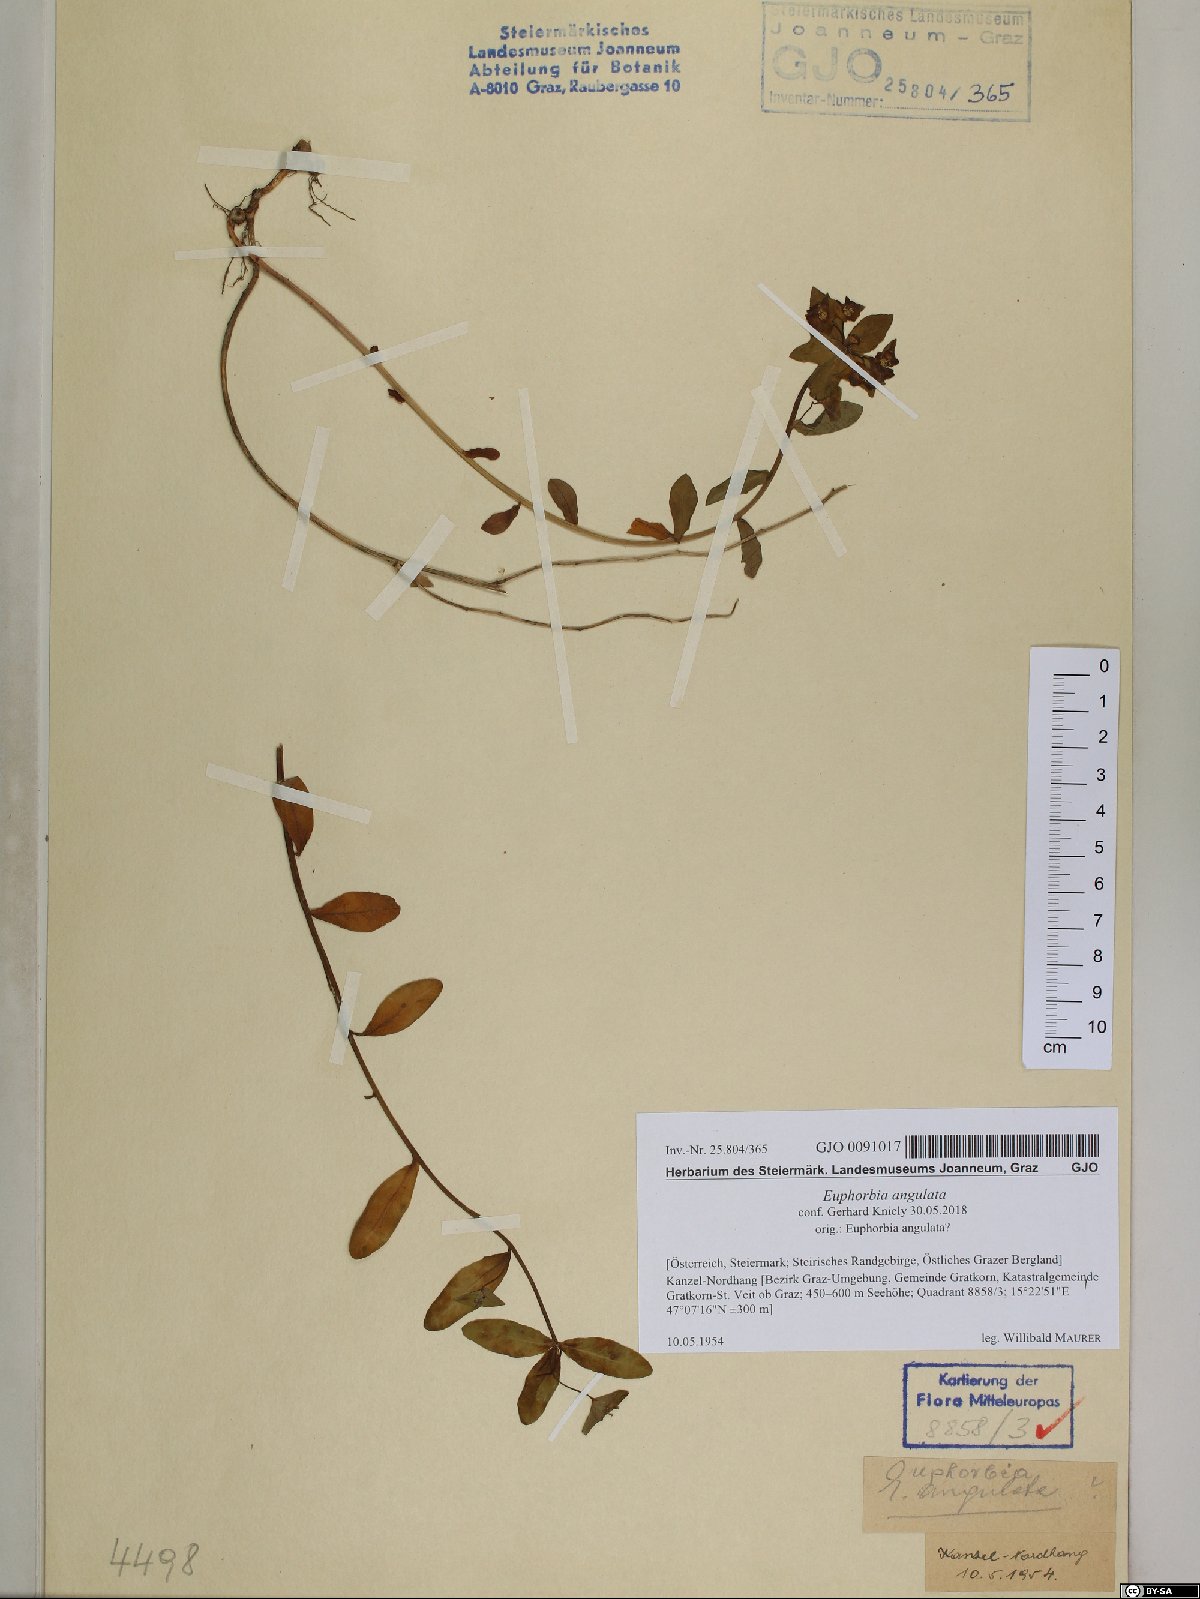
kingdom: Plantae
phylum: Tracheophyta
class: Magnoliopsida
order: Malpighiales
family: Euphorbiaceae
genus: Euphorbia
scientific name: Euphorbia angulata
